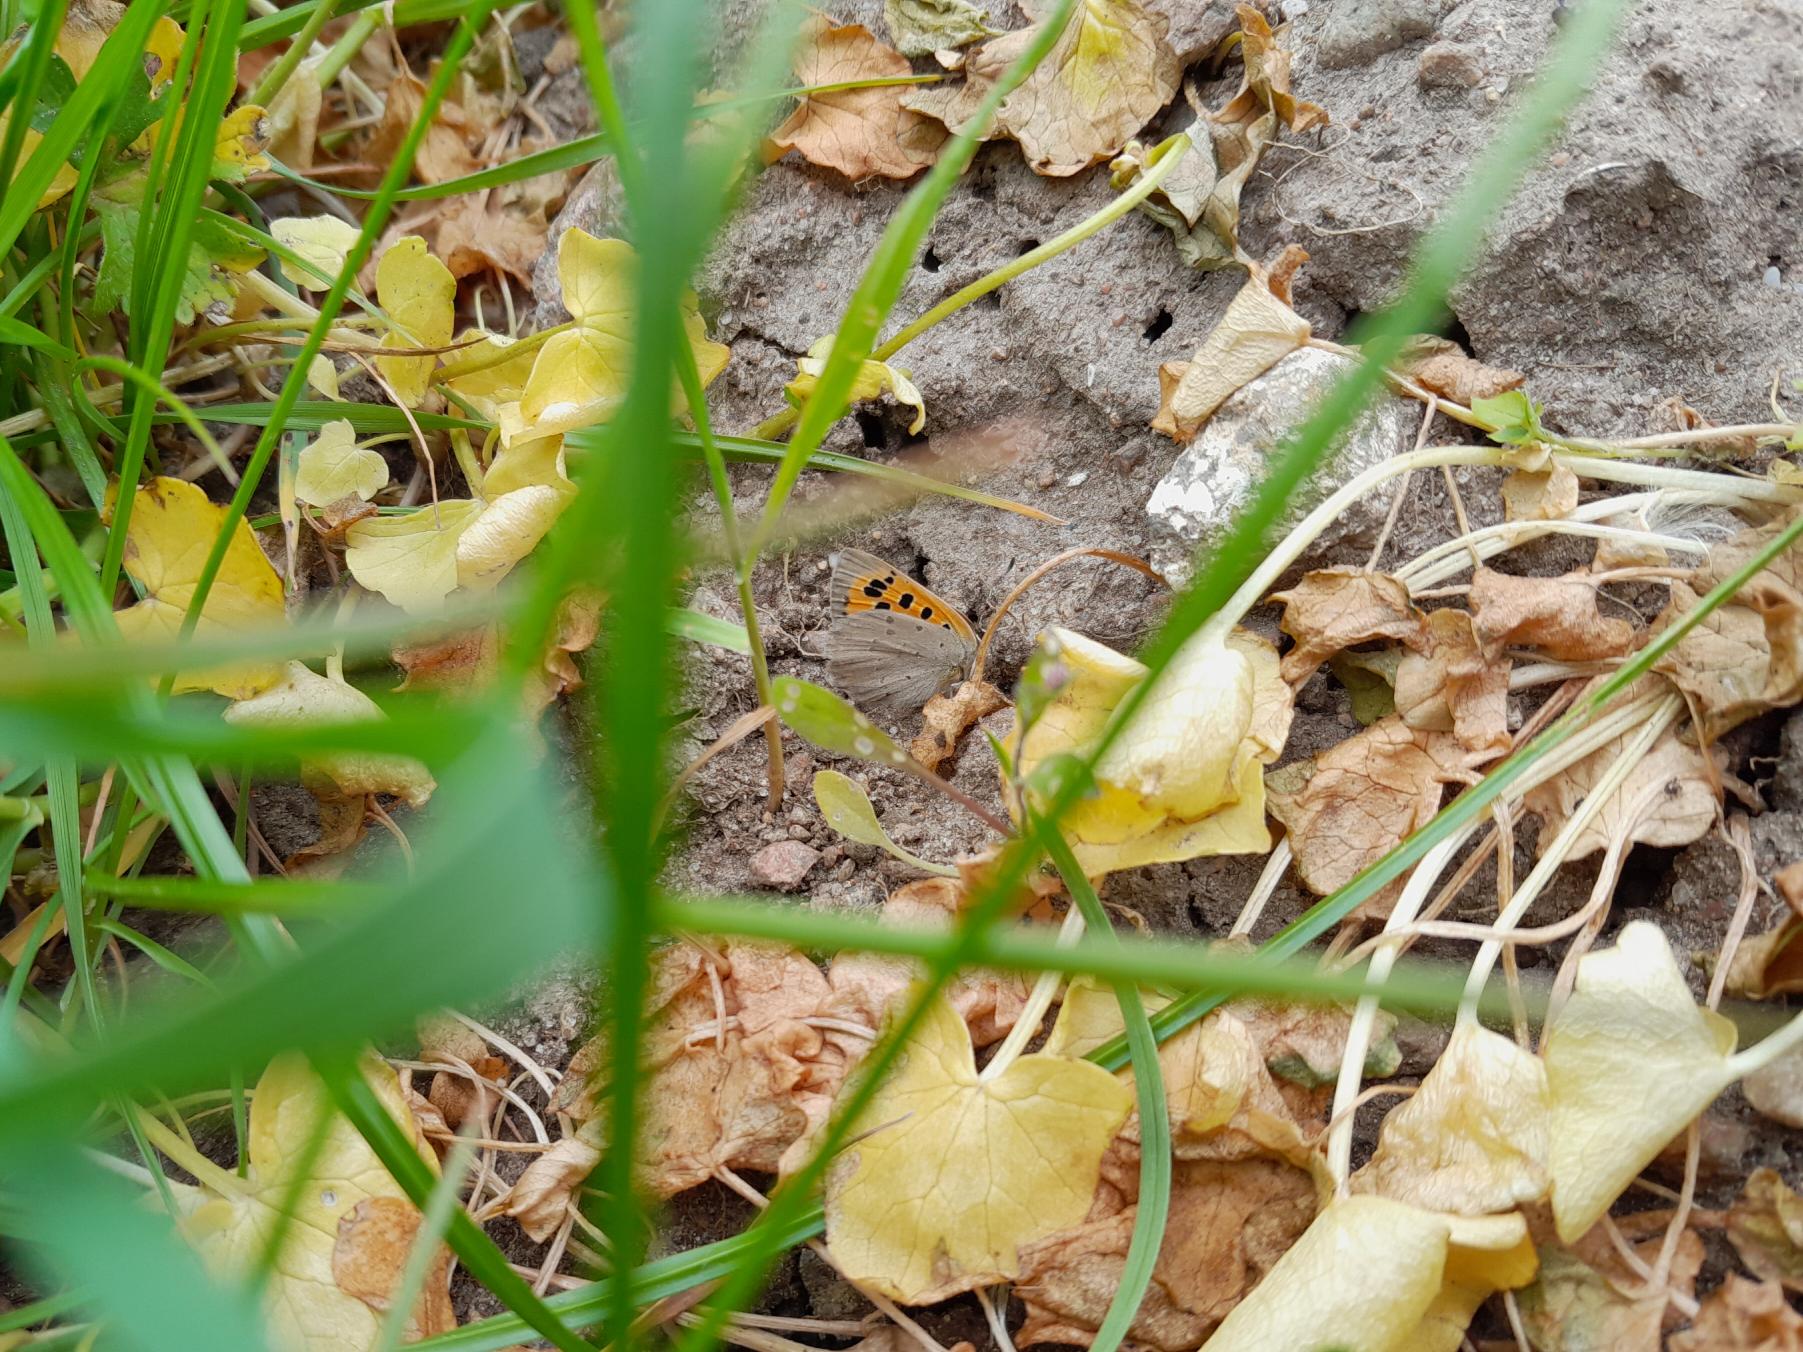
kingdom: Animalia
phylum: Arthropoda
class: Insecta
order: Lepidoptera
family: Lycaenidae
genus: Lycaena
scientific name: Lycaena phlaeas
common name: Lille ildfugl
